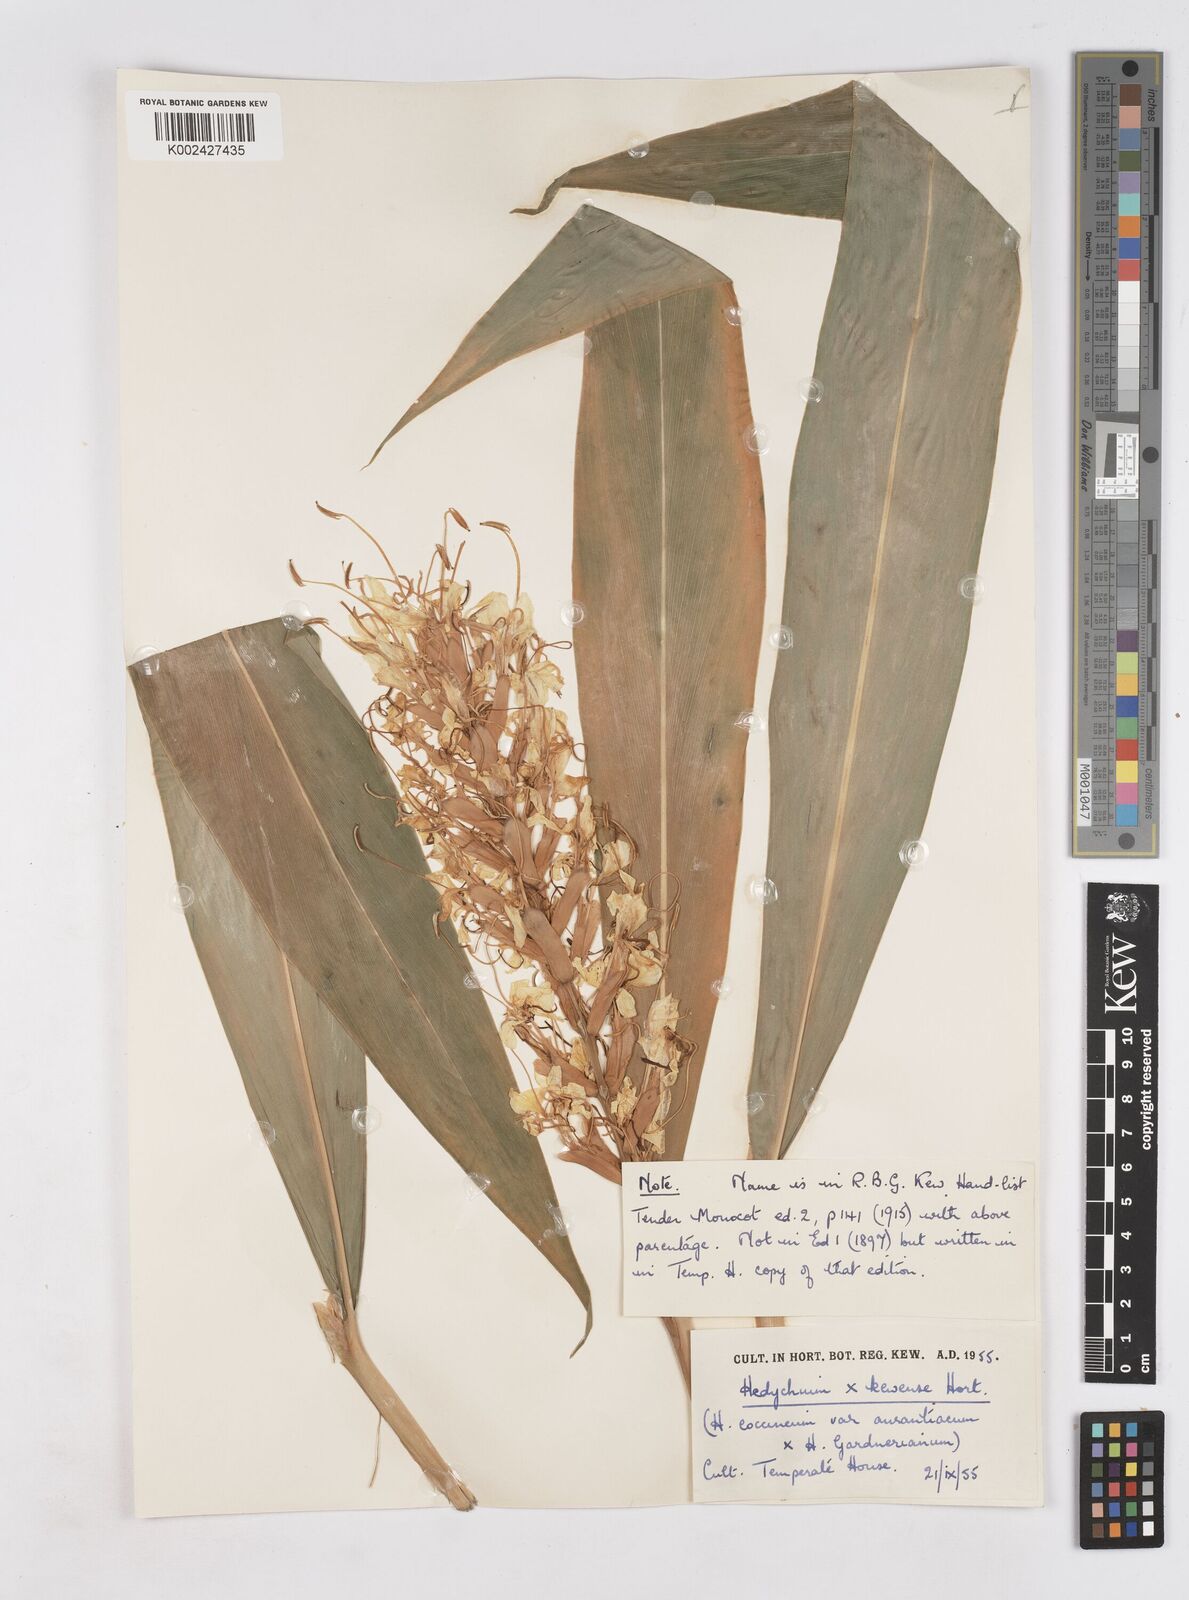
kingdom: Plantae
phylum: Tracheophyta
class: Liliopsida
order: Zingiberales
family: Zingiberaceae
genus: Hedychium
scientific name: Hedychium
